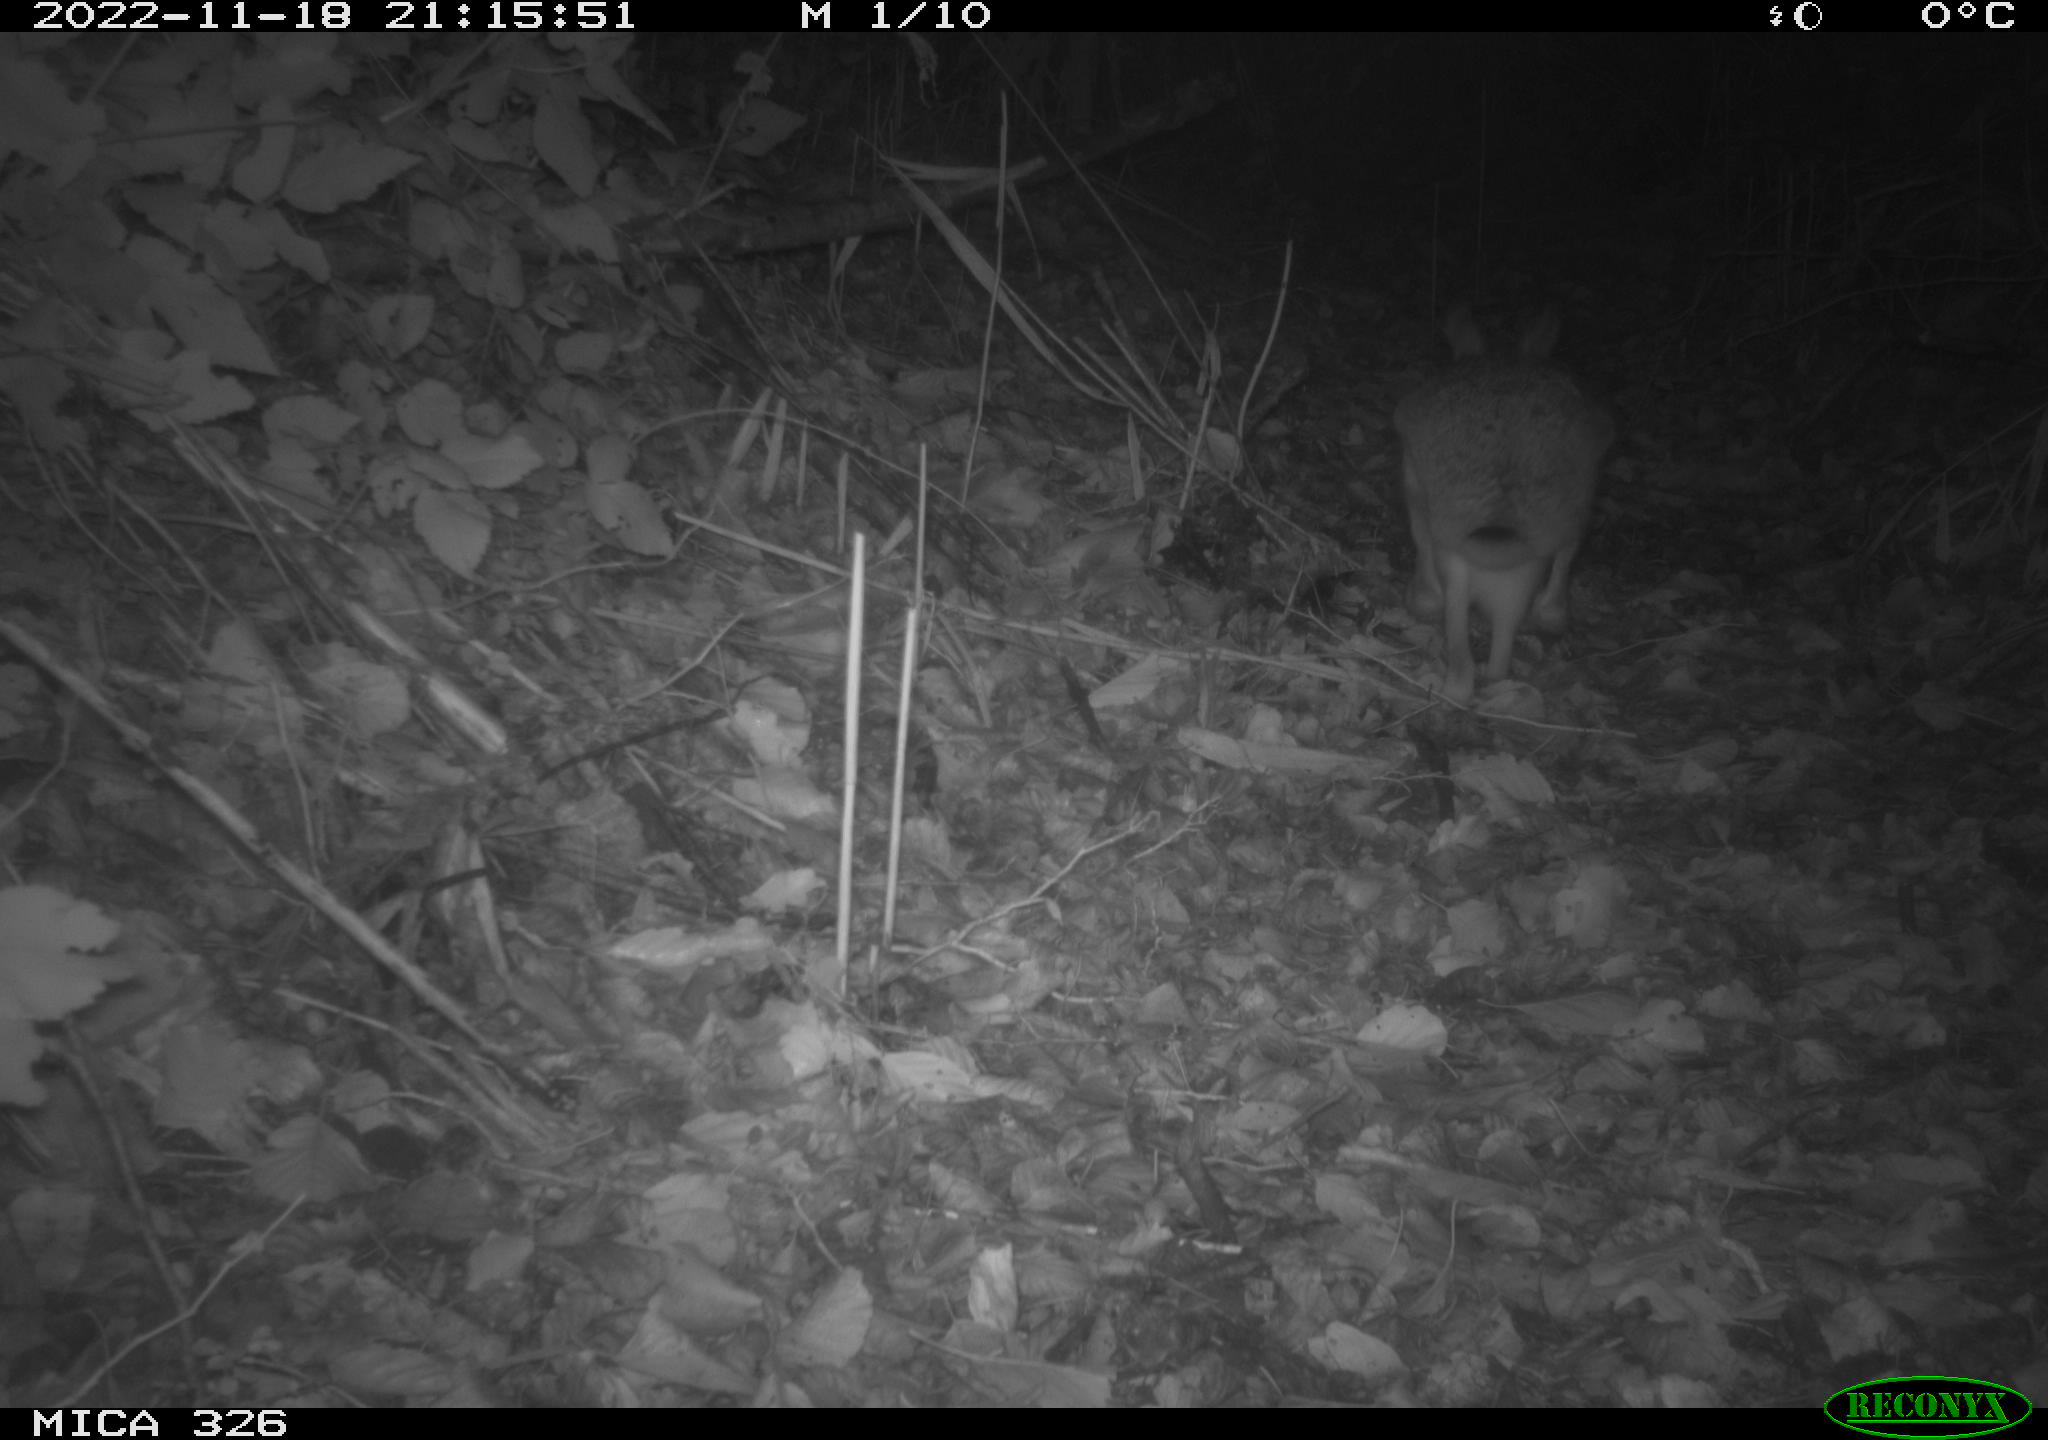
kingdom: Animalia
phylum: Chordata
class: Mammalia
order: Lagomorpha
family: Leporidae
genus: Lepus
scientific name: Lepus europaeus
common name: European hare
